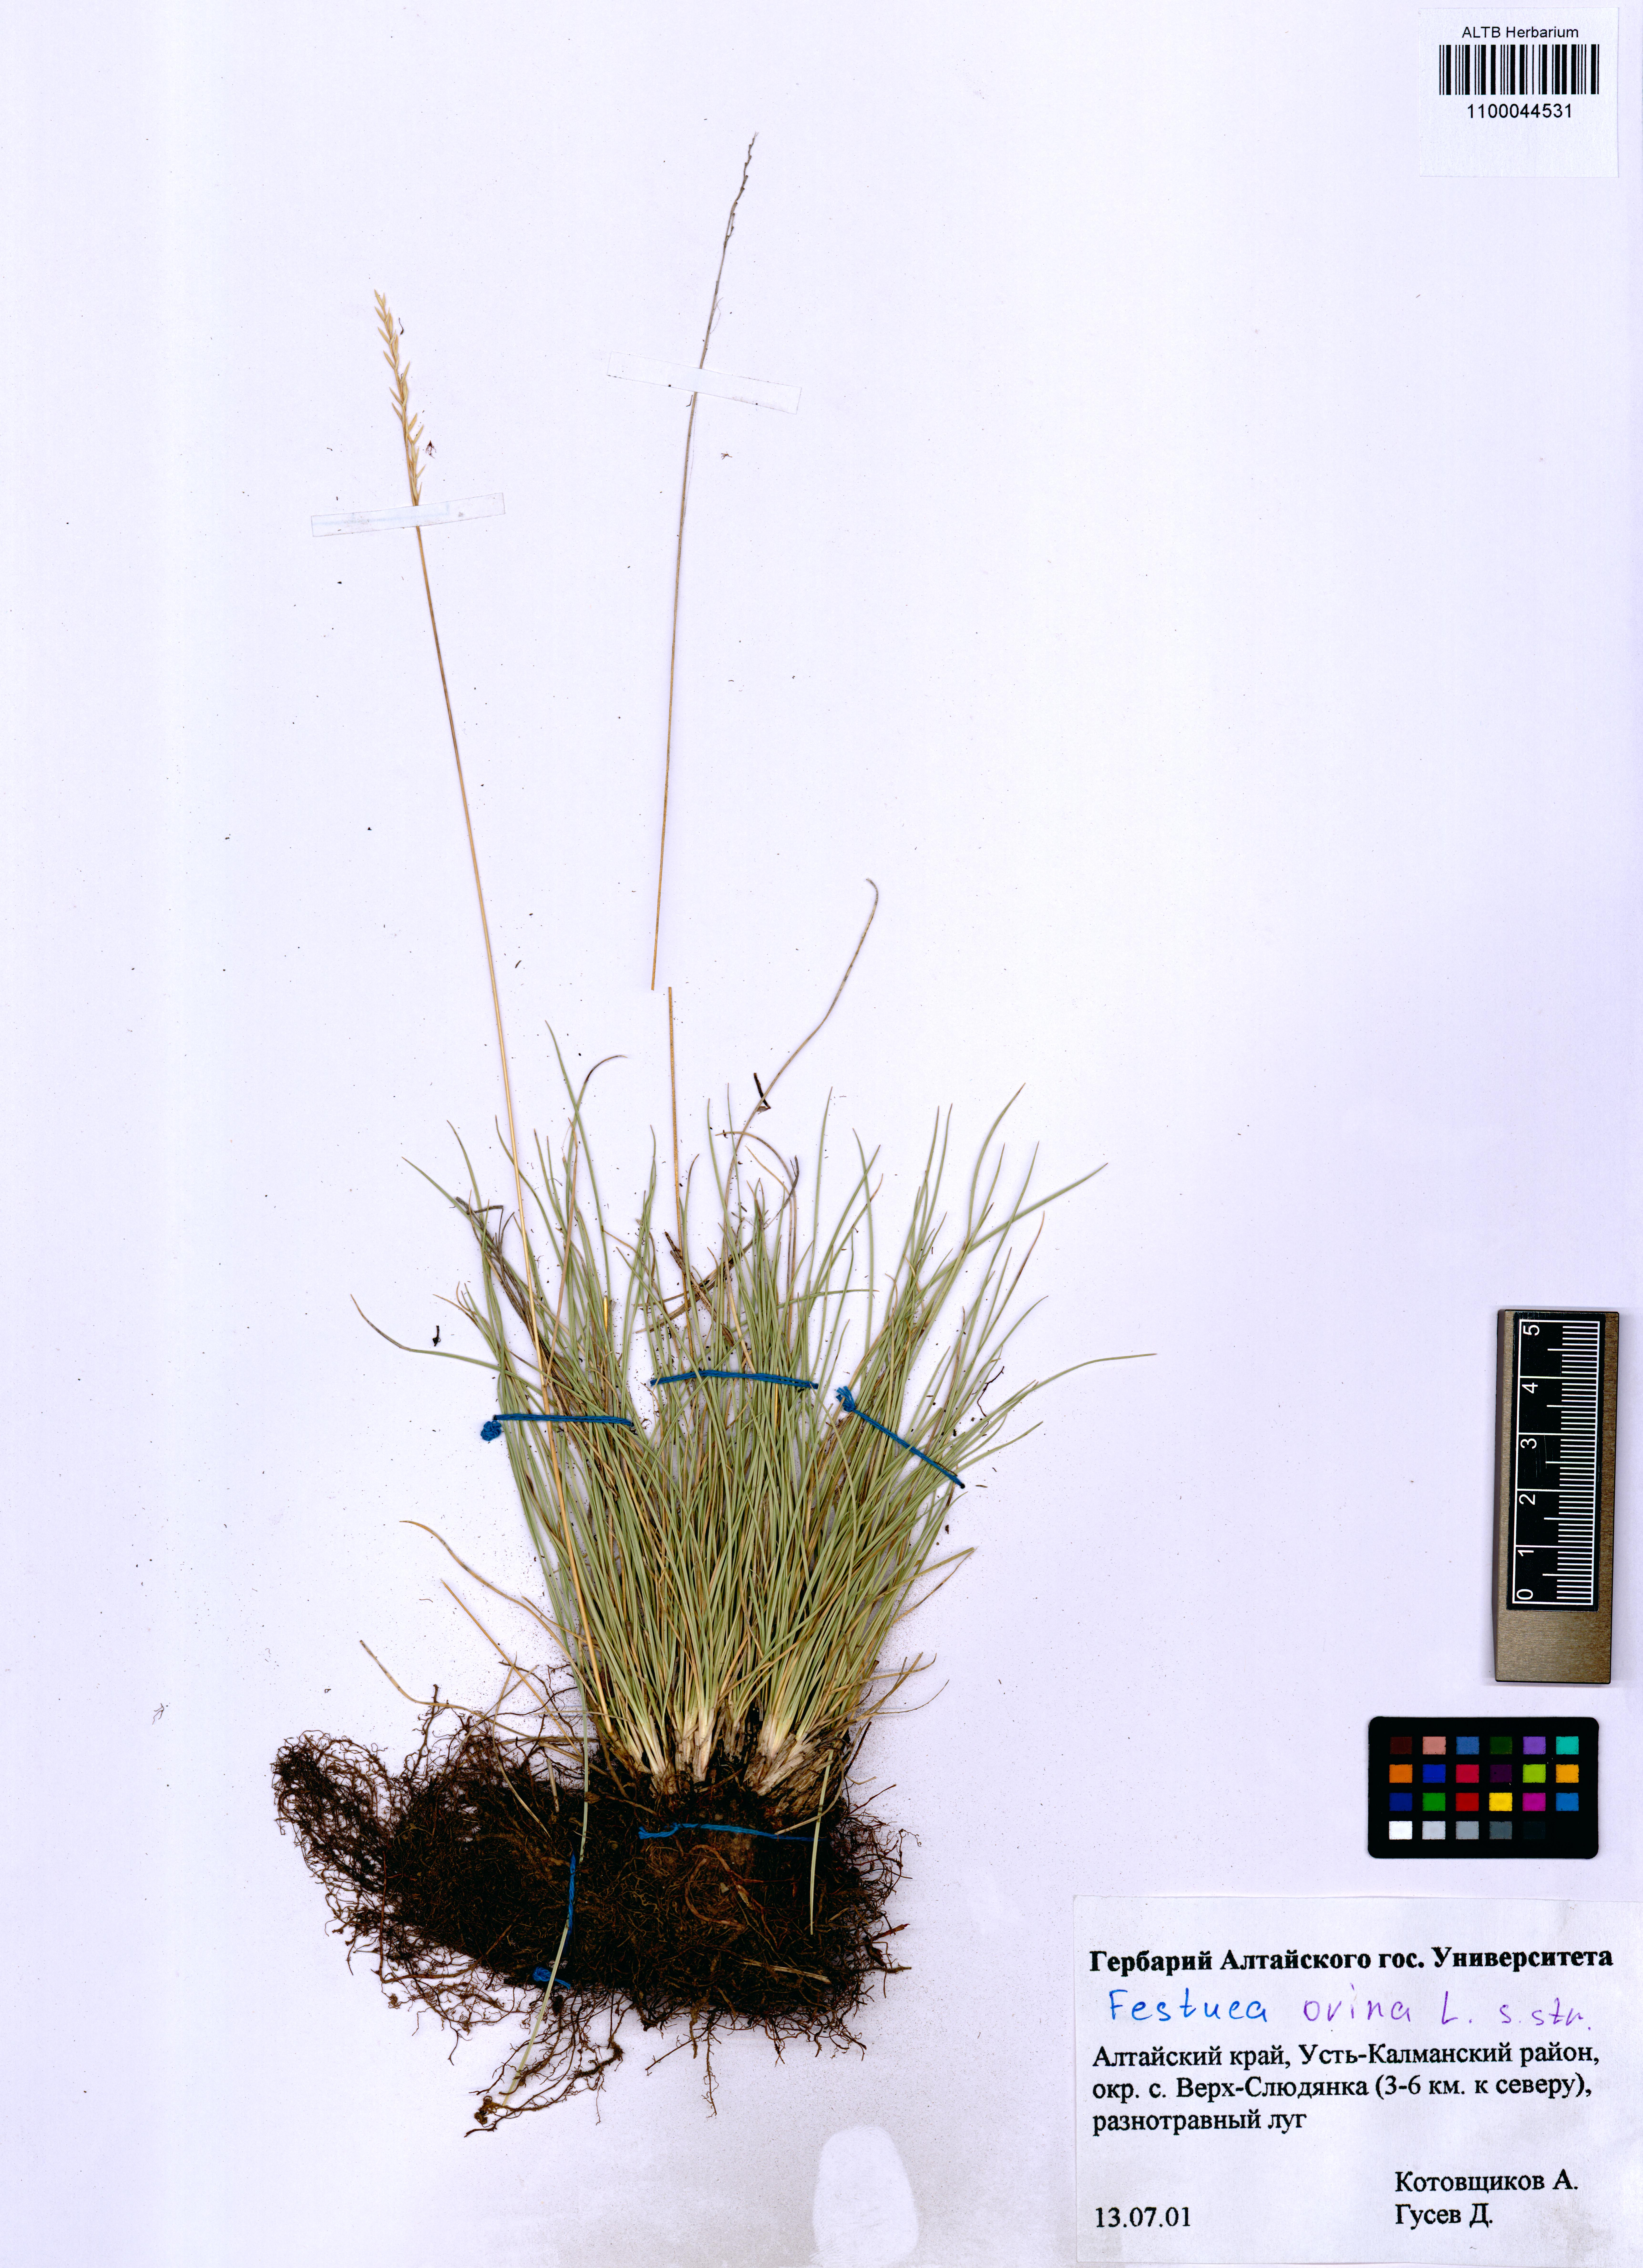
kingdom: Plantae
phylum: Tracheophyta
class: Liliopsida
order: Poales
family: Poaceae
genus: Festuca
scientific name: Festuca ovina
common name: Sheep fescue
